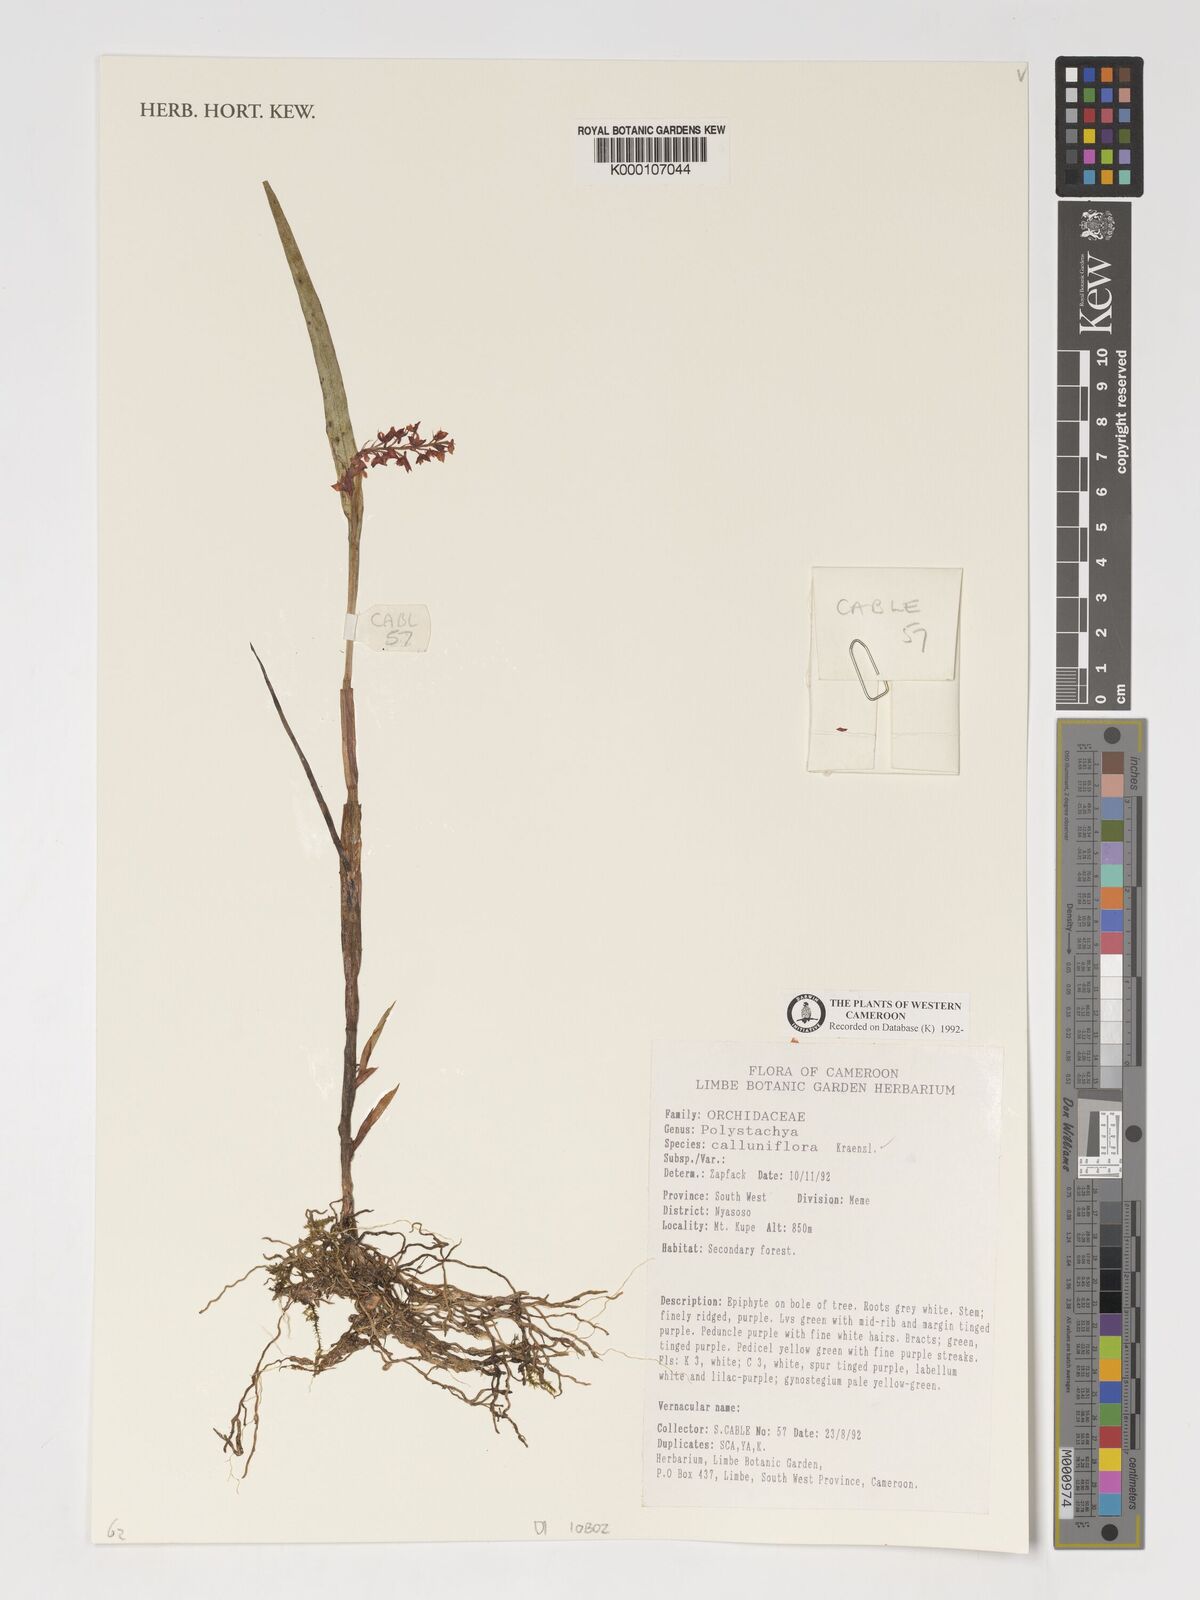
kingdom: Plantae
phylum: Tracheophyta
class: Liliopsida
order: Asparagales
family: Orchidaceae
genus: Polystachya
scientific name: Polystachya calluniflora
